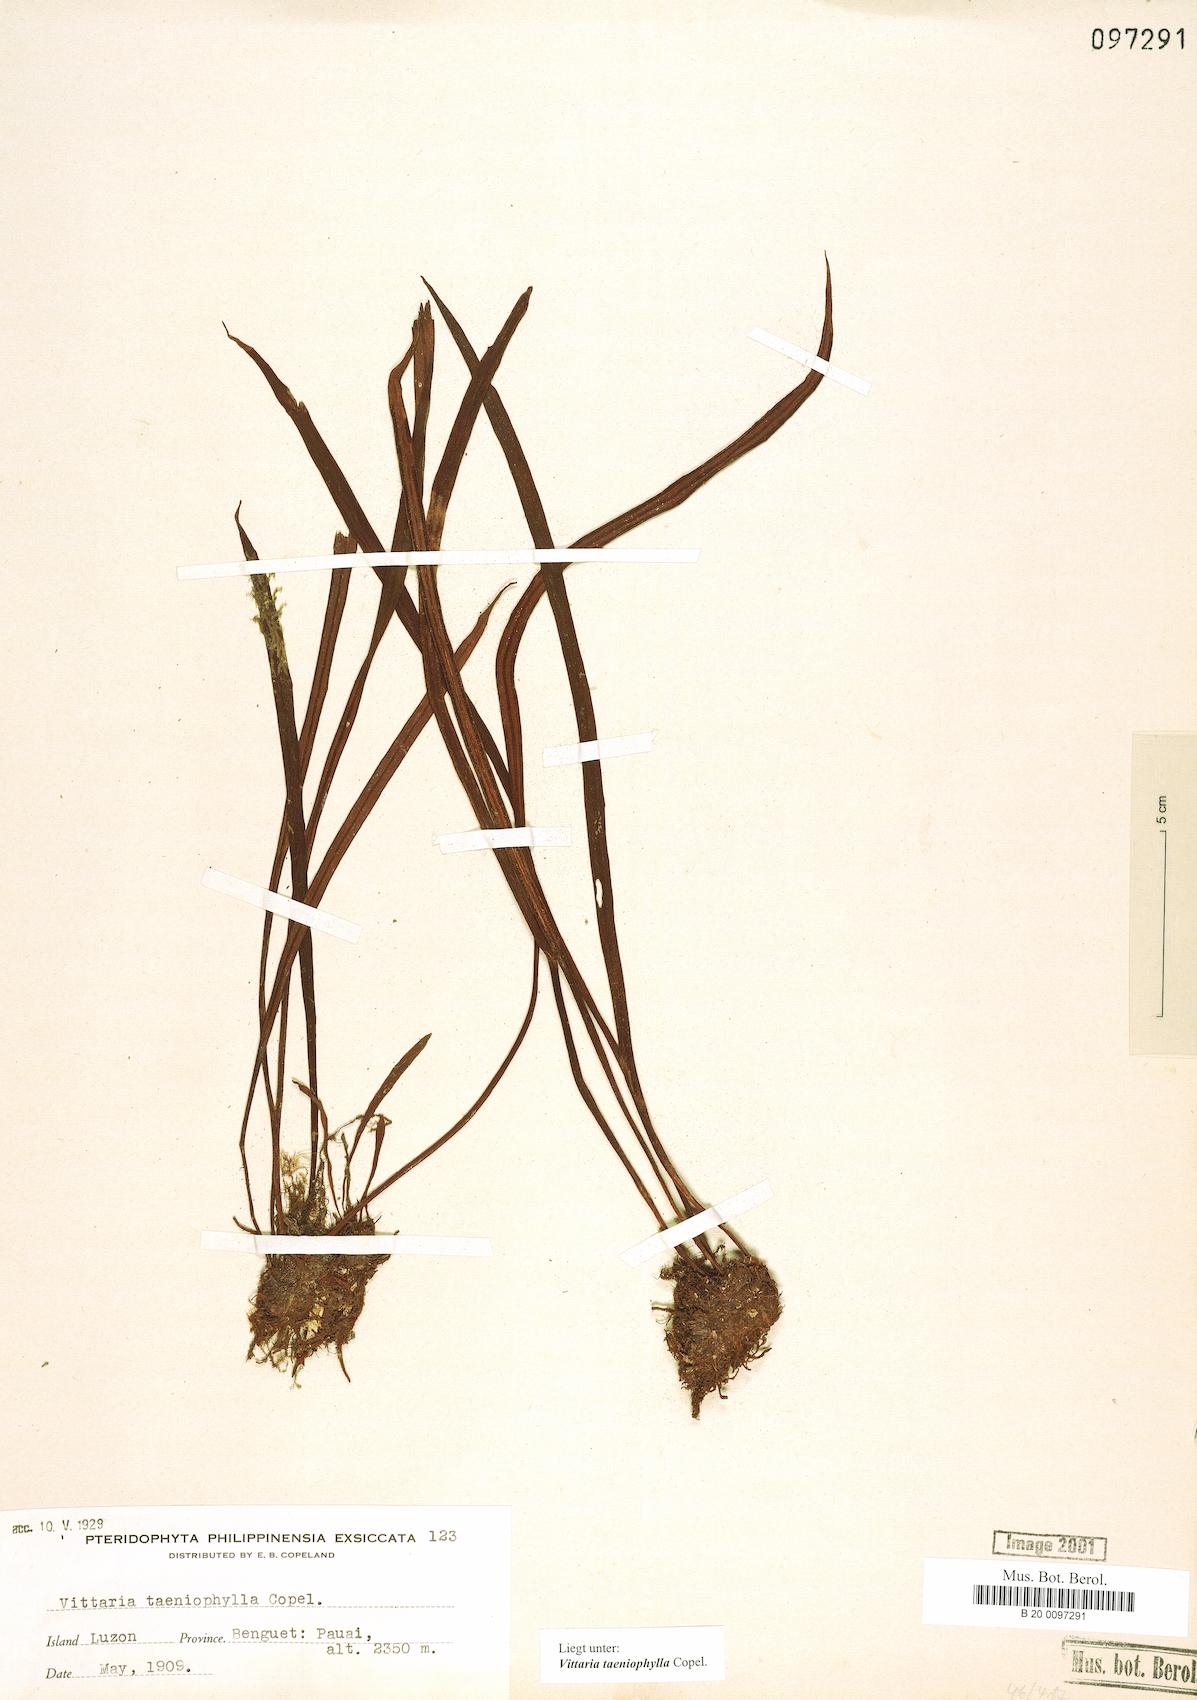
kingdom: Plantae
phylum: Tracheophyta
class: Polypodiopsida
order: Polypodiales
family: Pteridaceae
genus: Haplopteris
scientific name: Haplopteris taeniophylla
